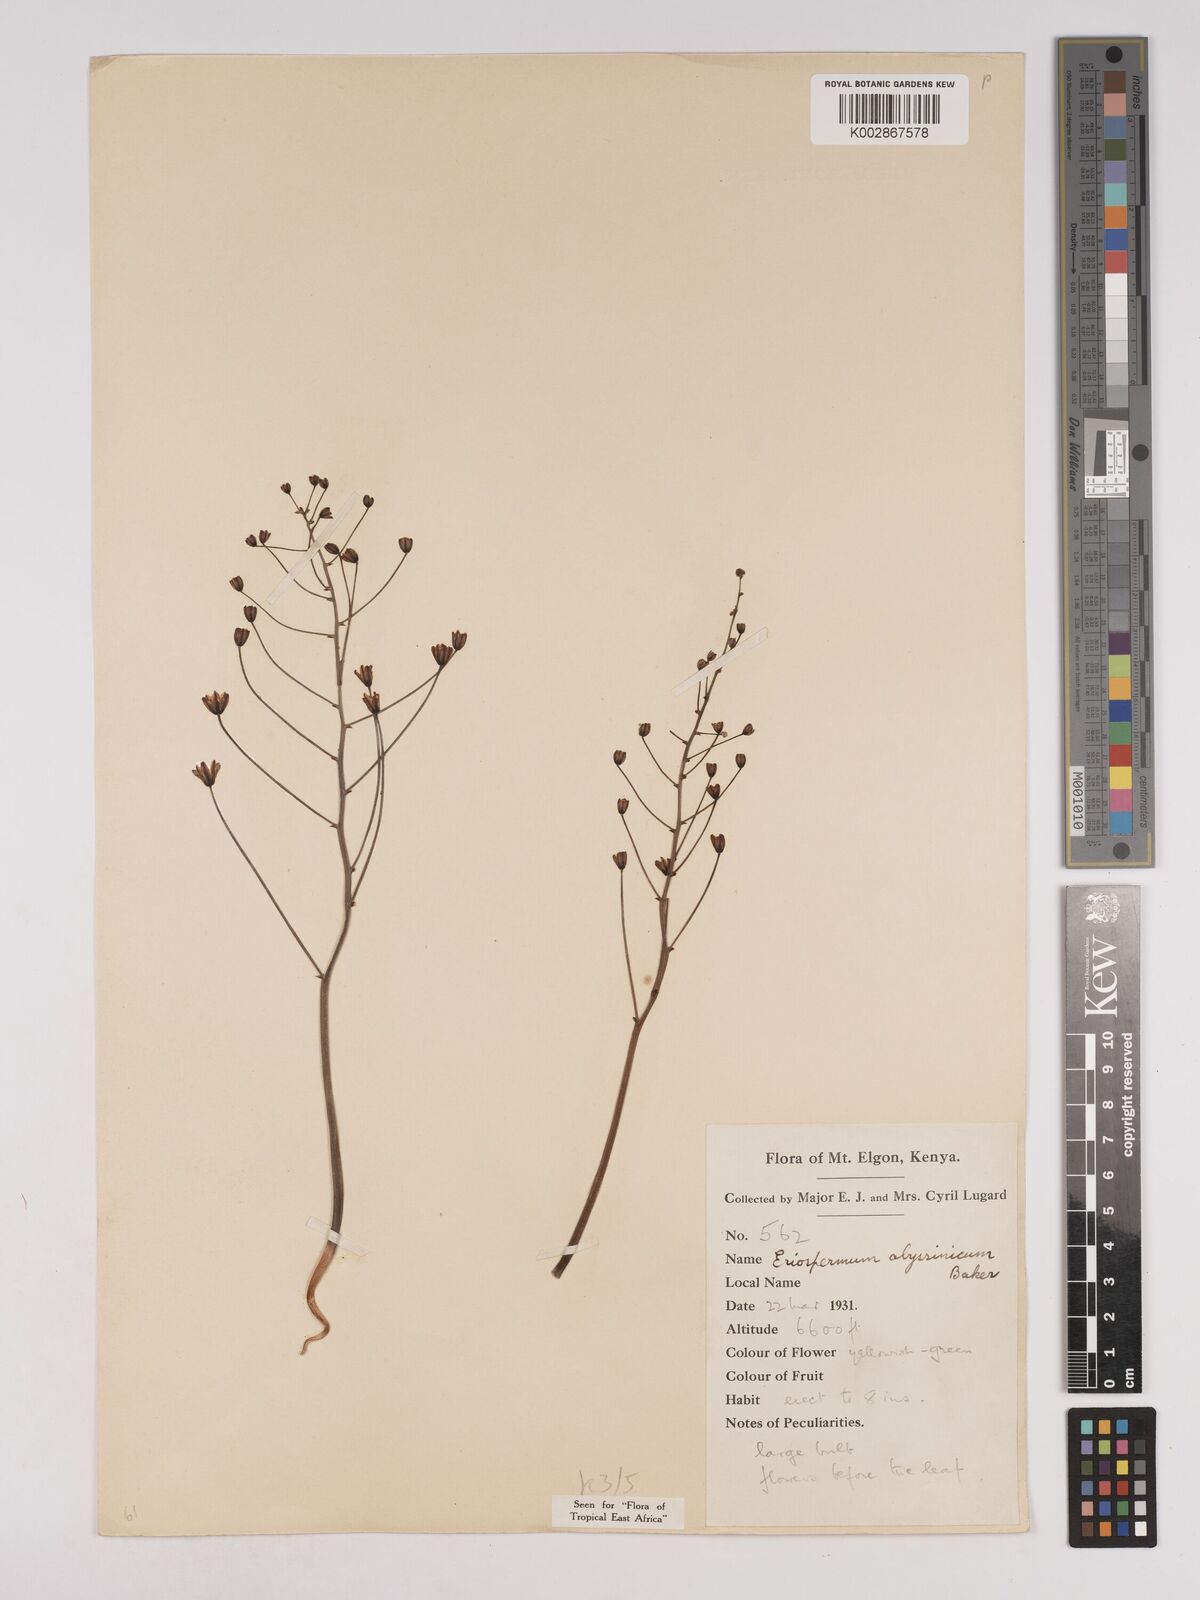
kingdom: Plantae
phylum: Tracheophyta
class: Liliopsida
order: Asparagales
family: Asparagaceae
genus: Eriospermum
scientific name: Eriospermum abyssinicum
